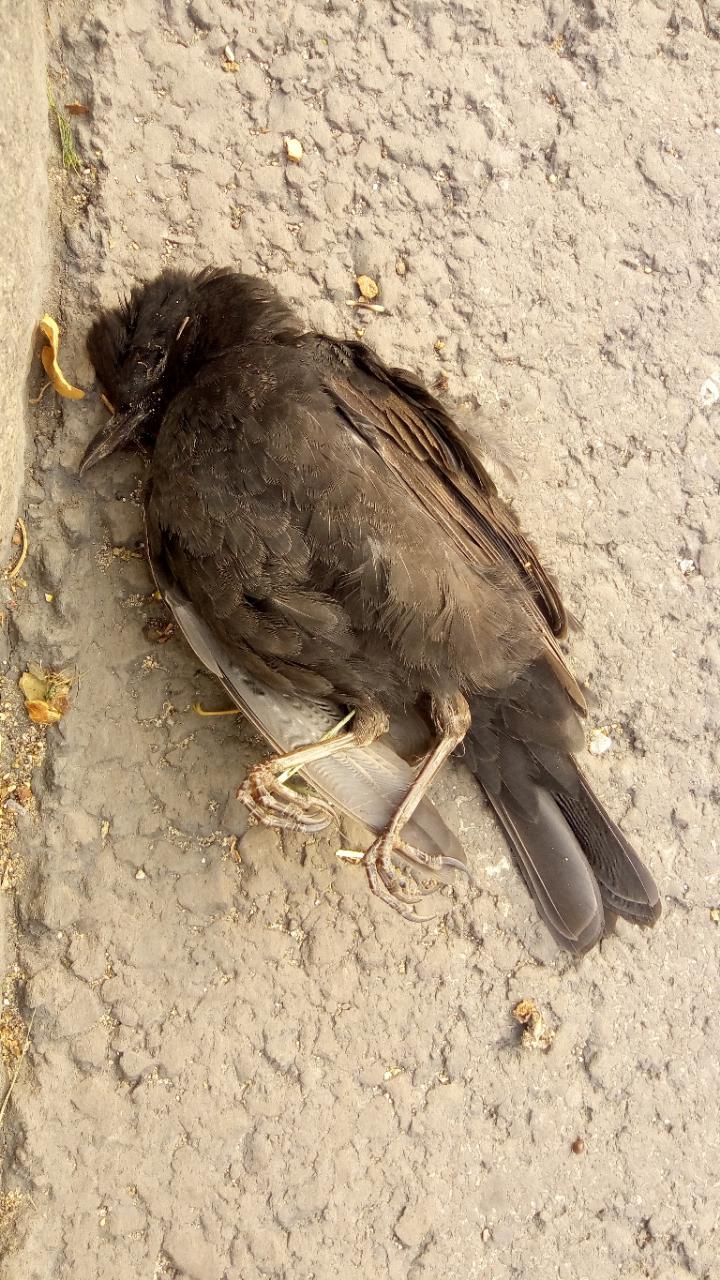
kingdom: Animalia
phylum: Chordata
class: Aves
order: Passeriformes
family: Turdidae
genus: Turdus
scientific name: Turdus merula
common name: Common blackbird
